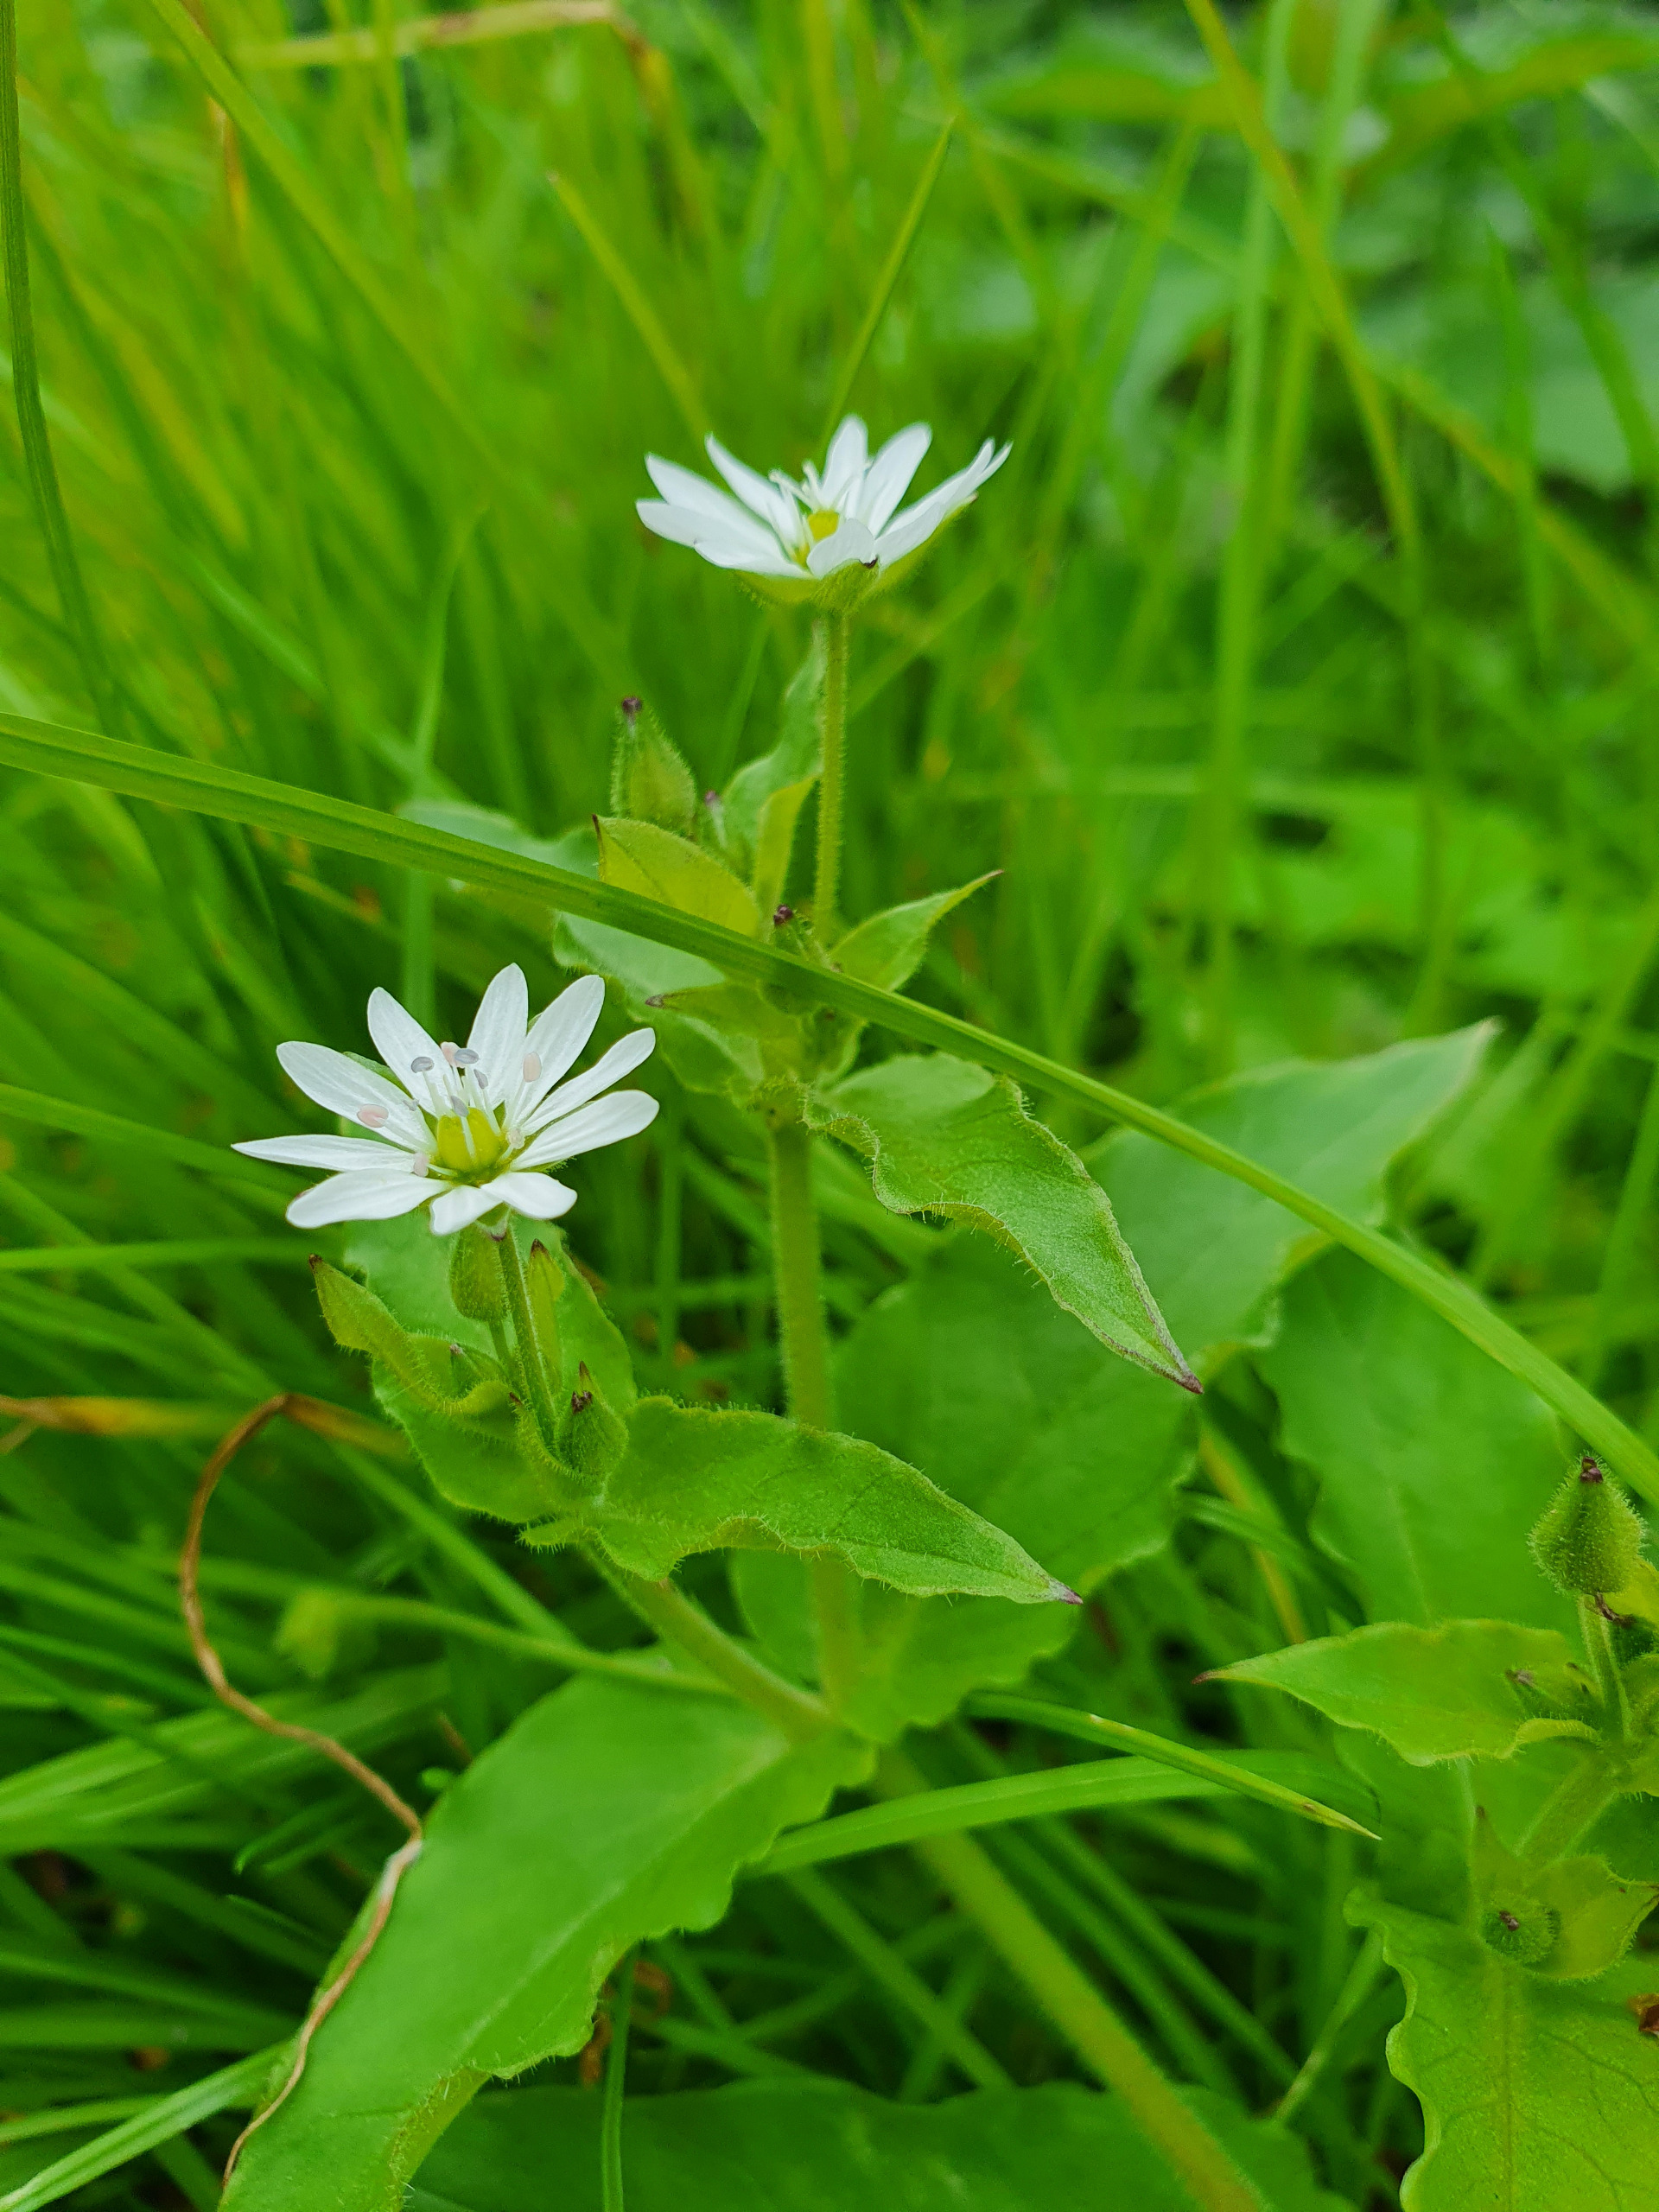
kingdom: Plantae
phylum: Tracheophyta
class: Magnoliopsida
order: Caryophyllales
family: Caryophyllaceae
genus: Stellaria
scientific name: Stellaria aquatica
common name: Kløvkrone
